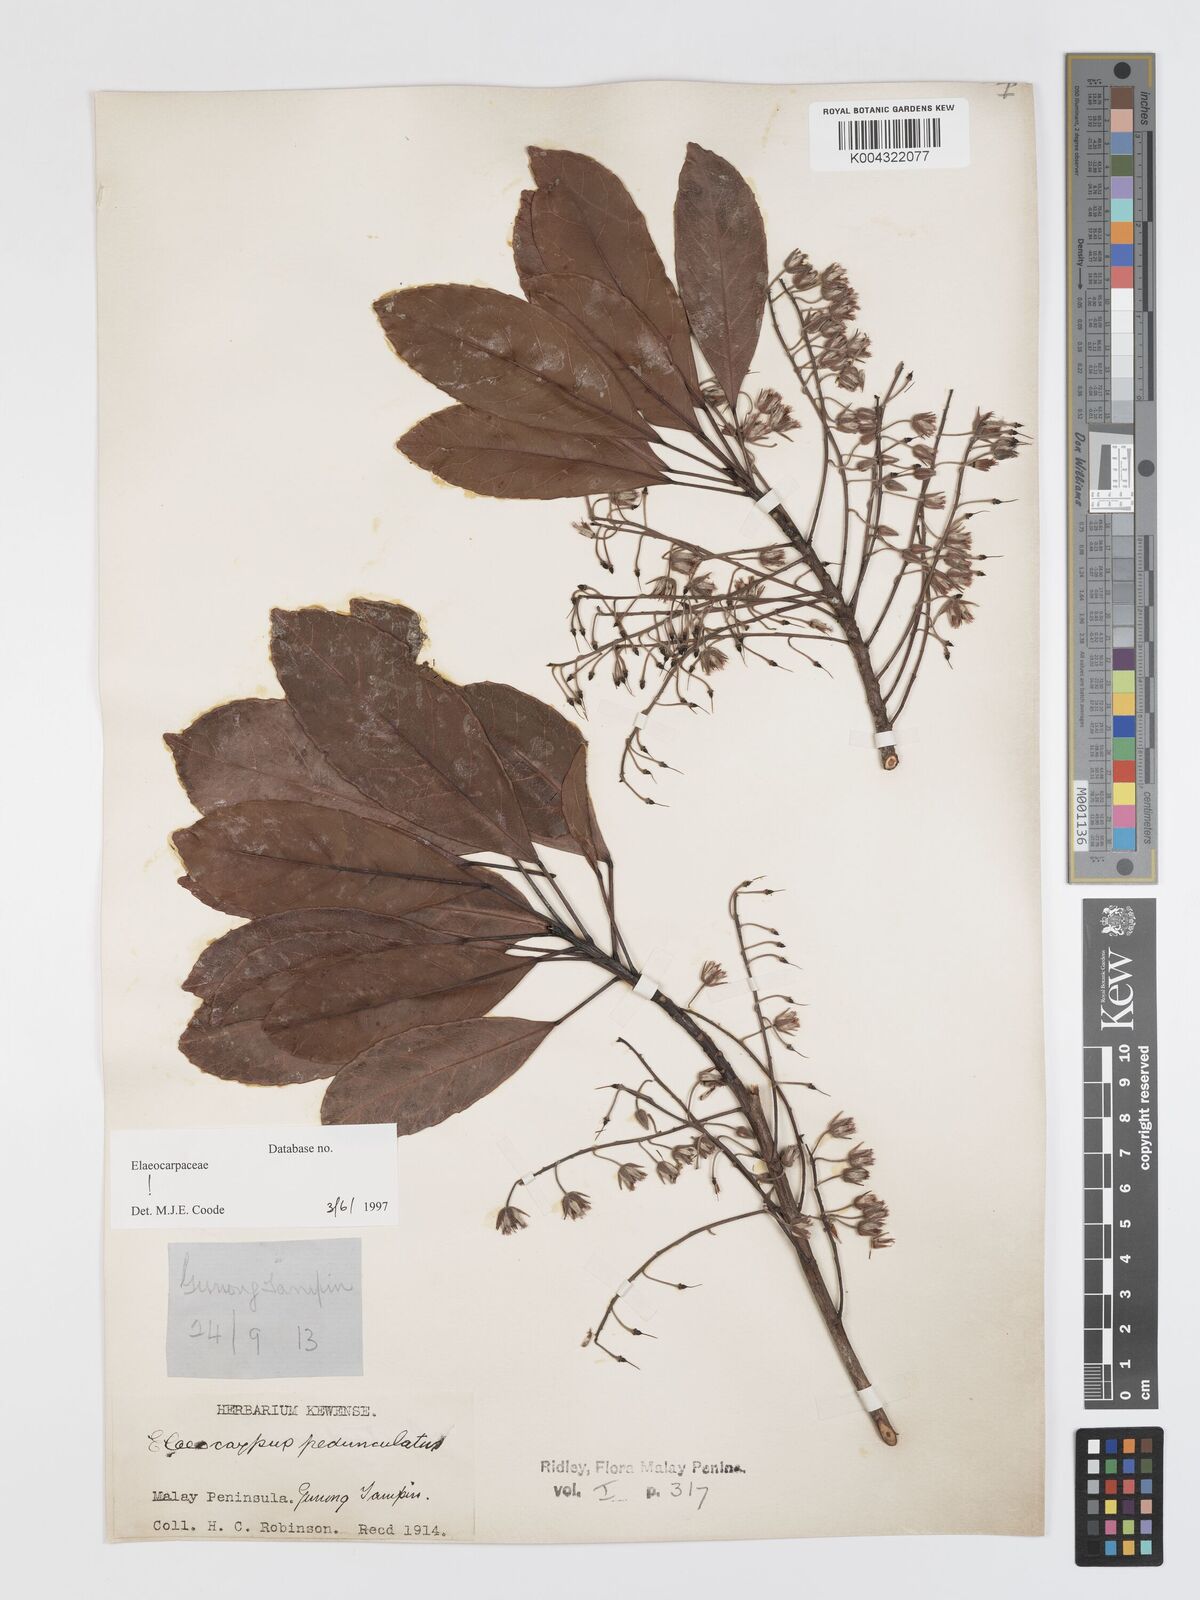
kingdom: Plantae
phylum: Tracheophyta
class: Magnoliopsida
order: Oxalidales
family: Elaeocarpaceae
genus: Elaeocarpus
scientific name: Elaeocarpus pedunculatus
